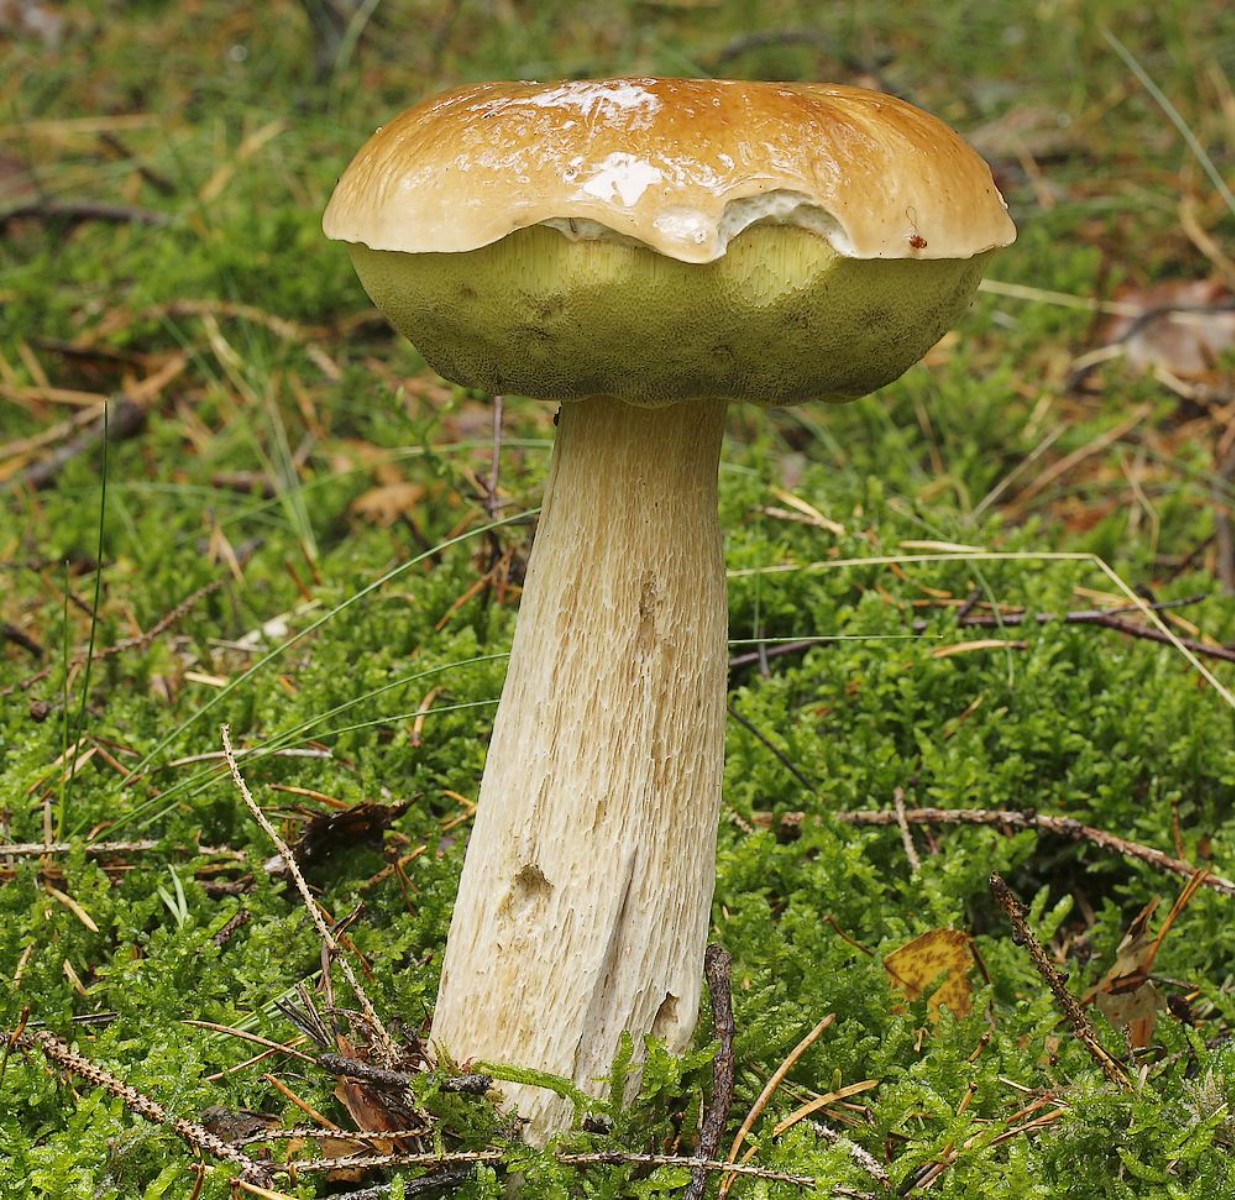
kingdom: Fungi
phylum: Basidiomycota
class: Agaricomycetes
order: Boletales
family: Boletaceae
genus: Boletus
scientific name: Boletus edulis
